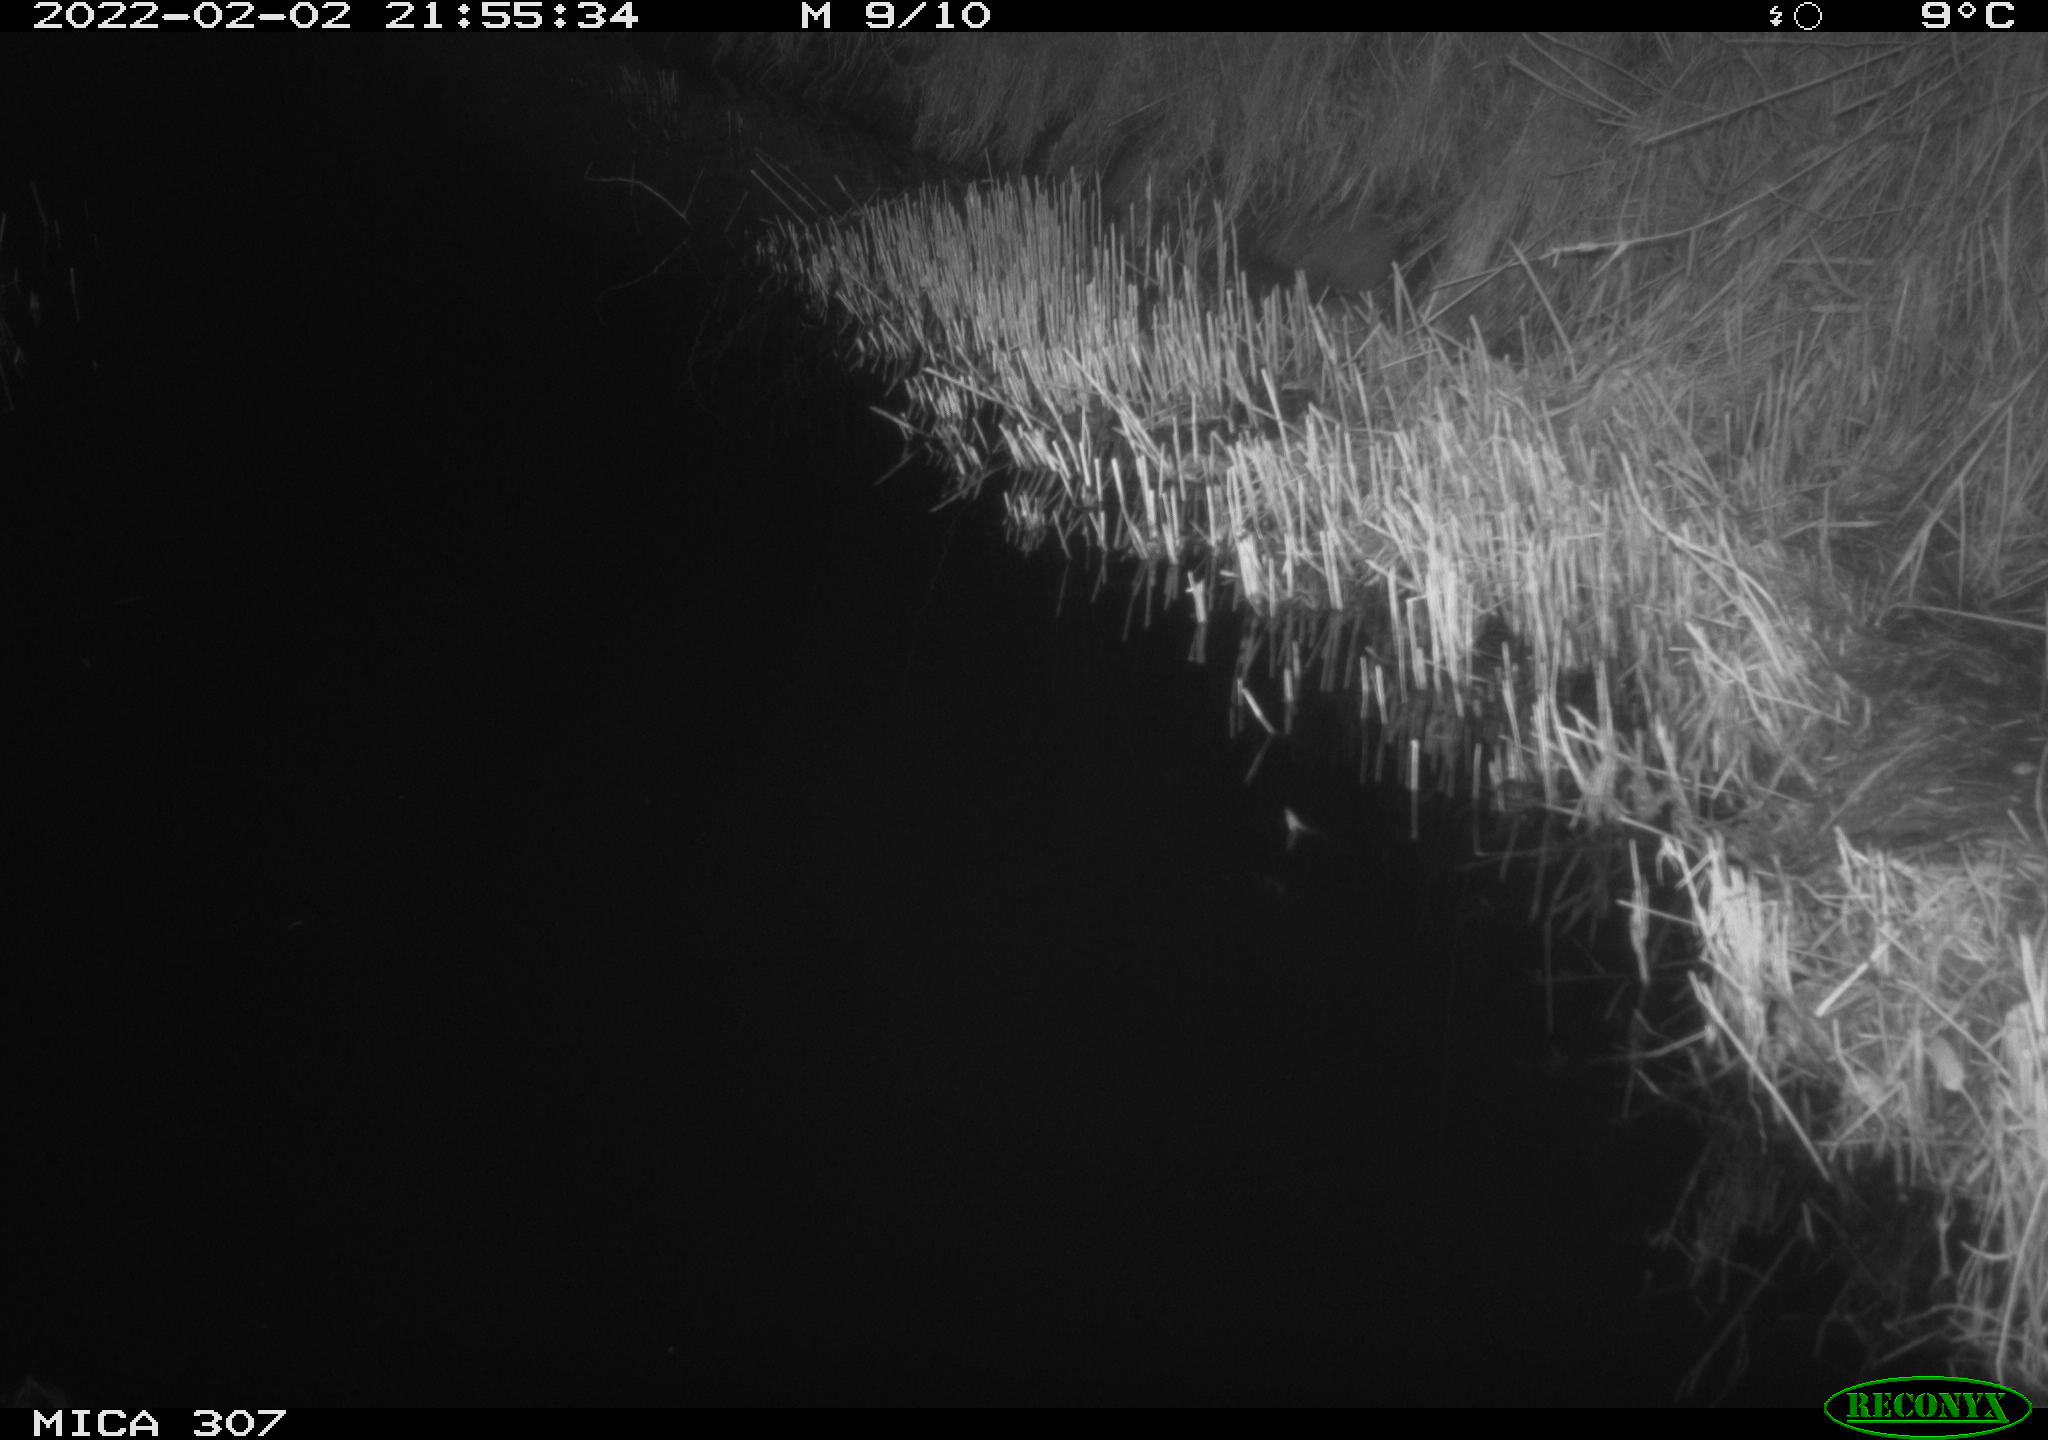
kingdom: Animalia
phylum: Chordata
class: Mammalia
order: Rodentia
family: Muridae
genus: Rattus
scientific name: Rattus norvegicus
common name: Brown rat
